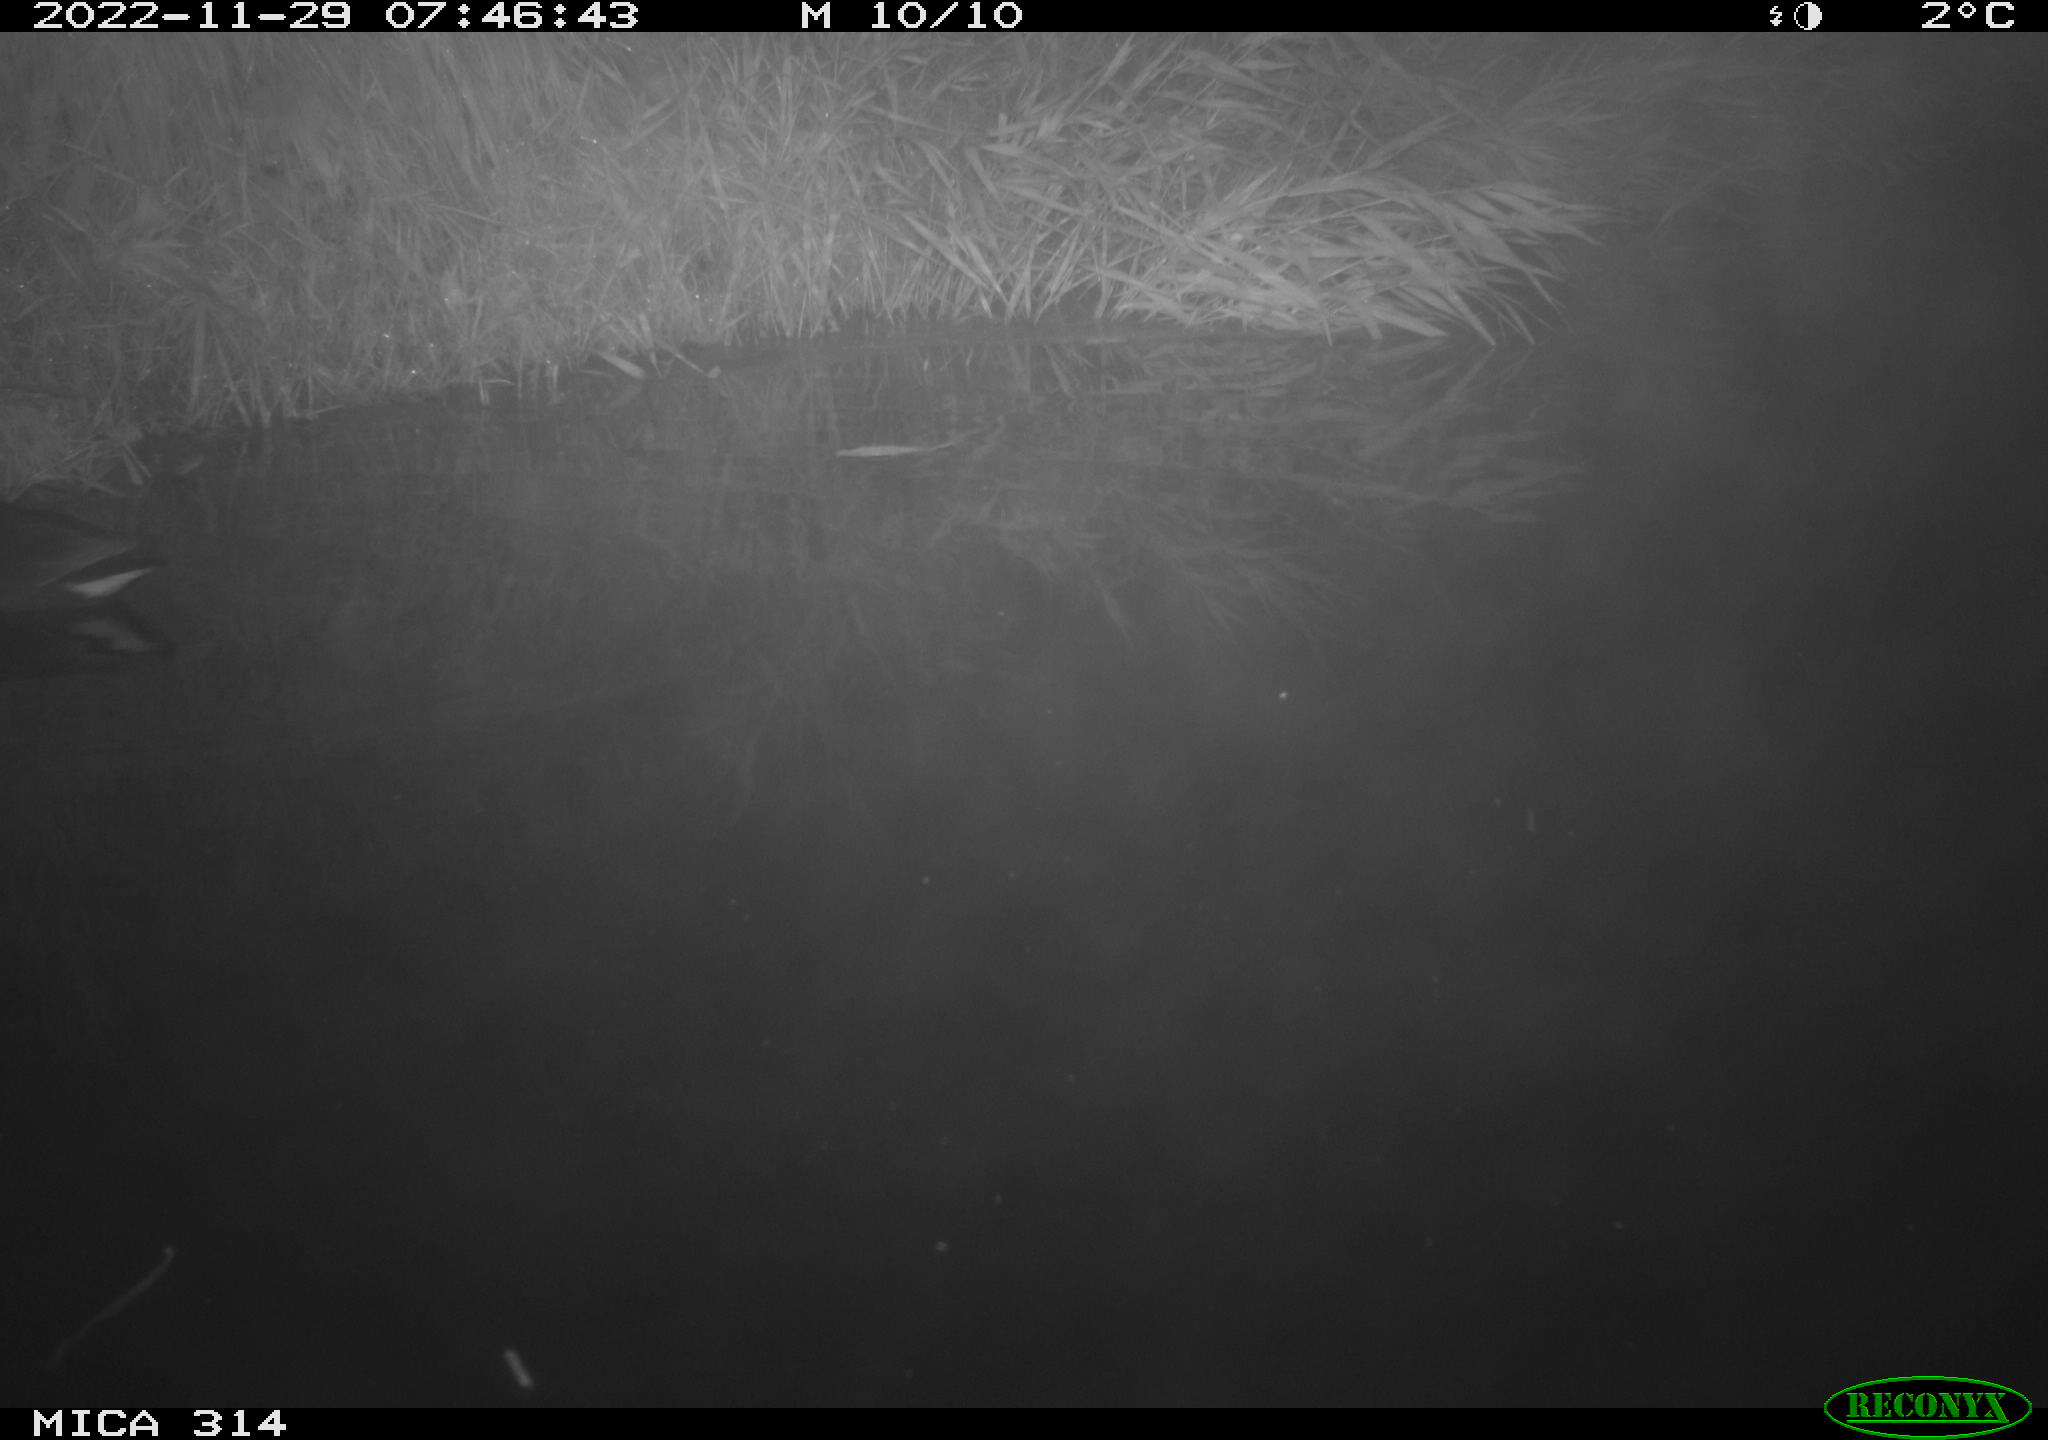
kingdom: Animalia
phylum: Chordata
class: Aves
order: Gruiformes
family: Rallidae
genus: Gallinula
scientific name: Gallinula chloropus
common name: Common moorhen
